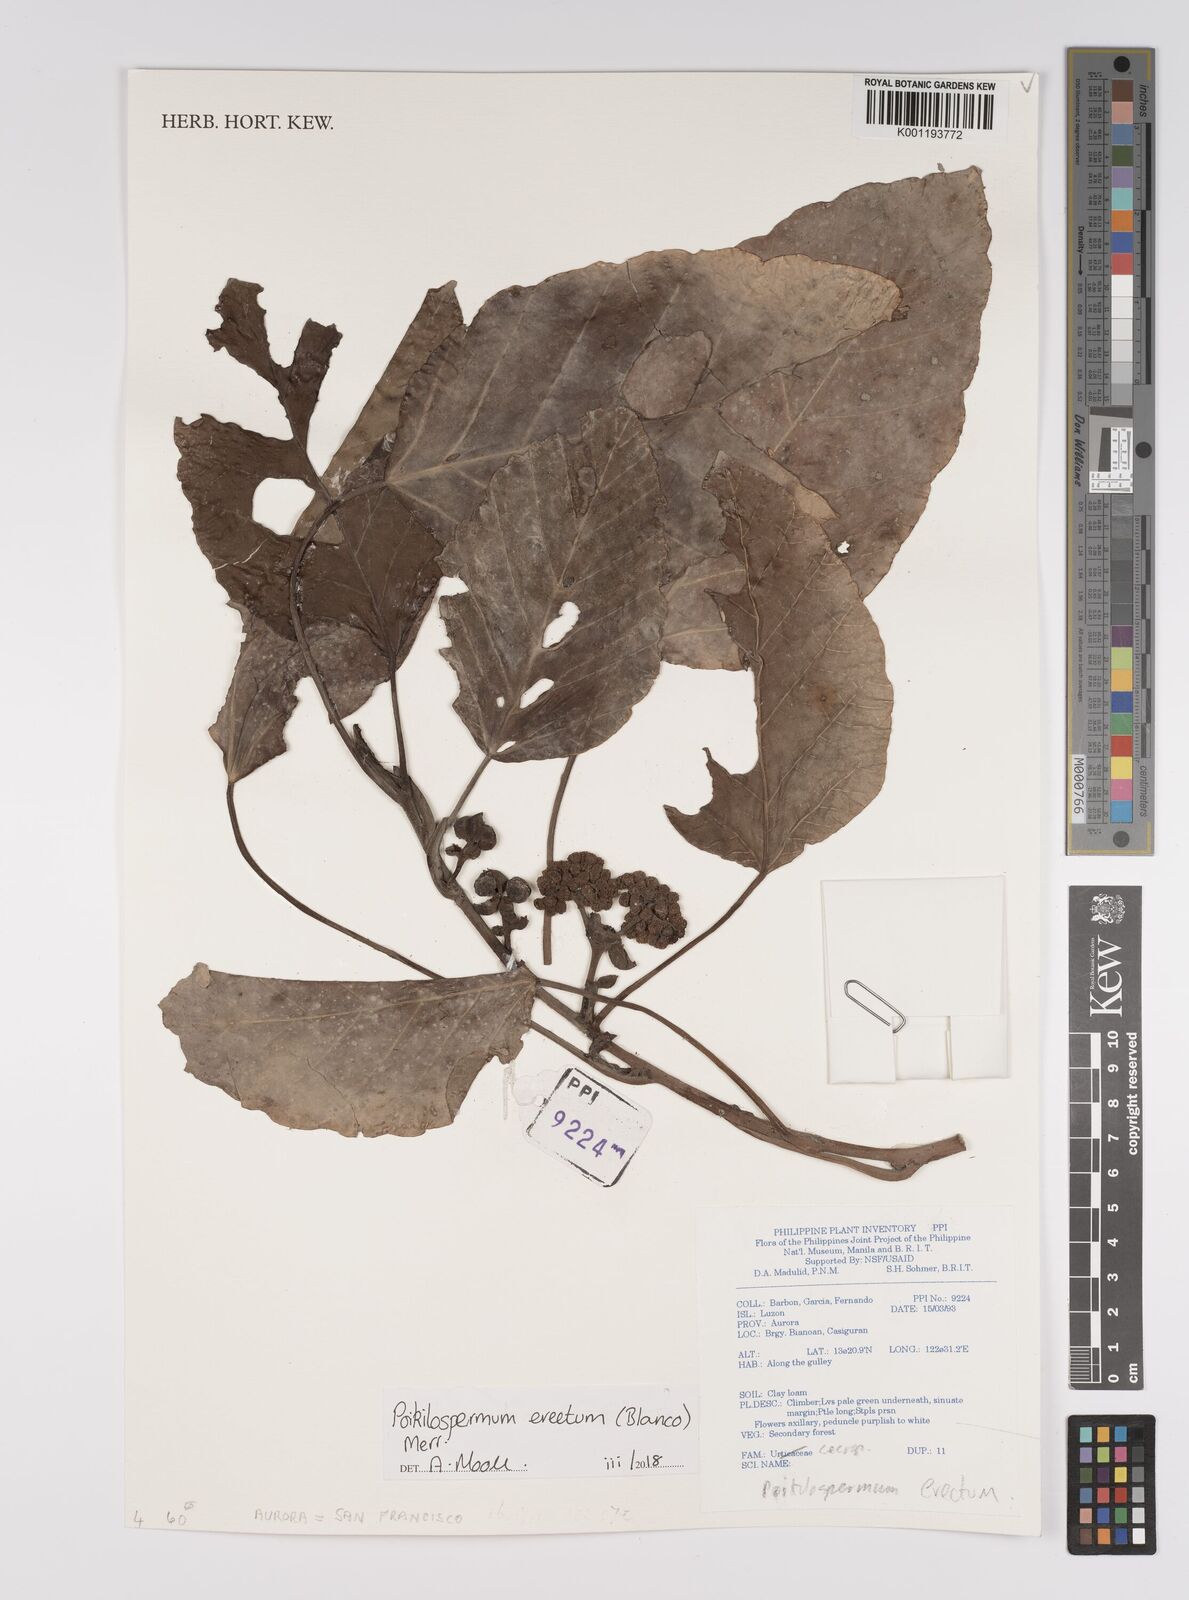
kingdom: Plantae
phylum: Tracheophyta
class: Magnoliopsida
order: Rosales
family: Urticaceae
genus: Poikilospermum
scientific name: Poikilospermum erectum
